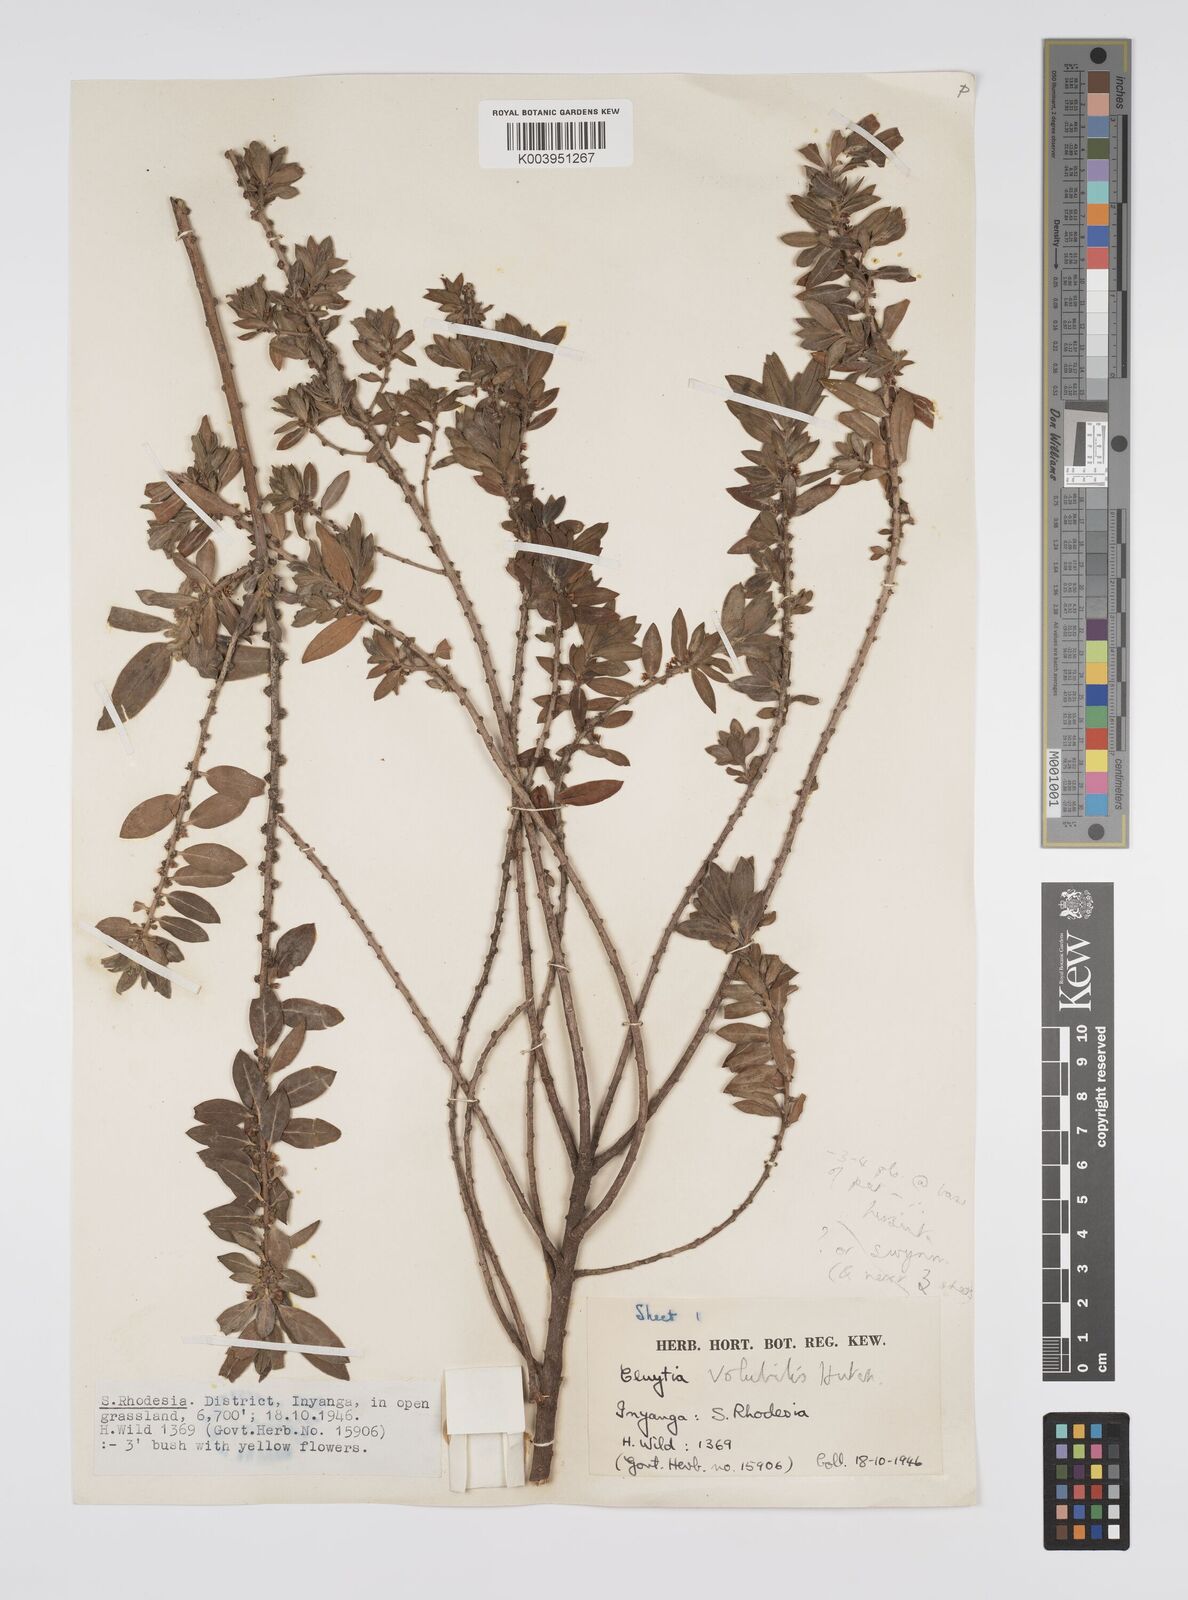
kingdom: Plantae
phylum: Tracheophyta
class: Magnoliopsida
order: Malpighiales
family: Peraceae
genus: Clutia
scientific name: Clutia
